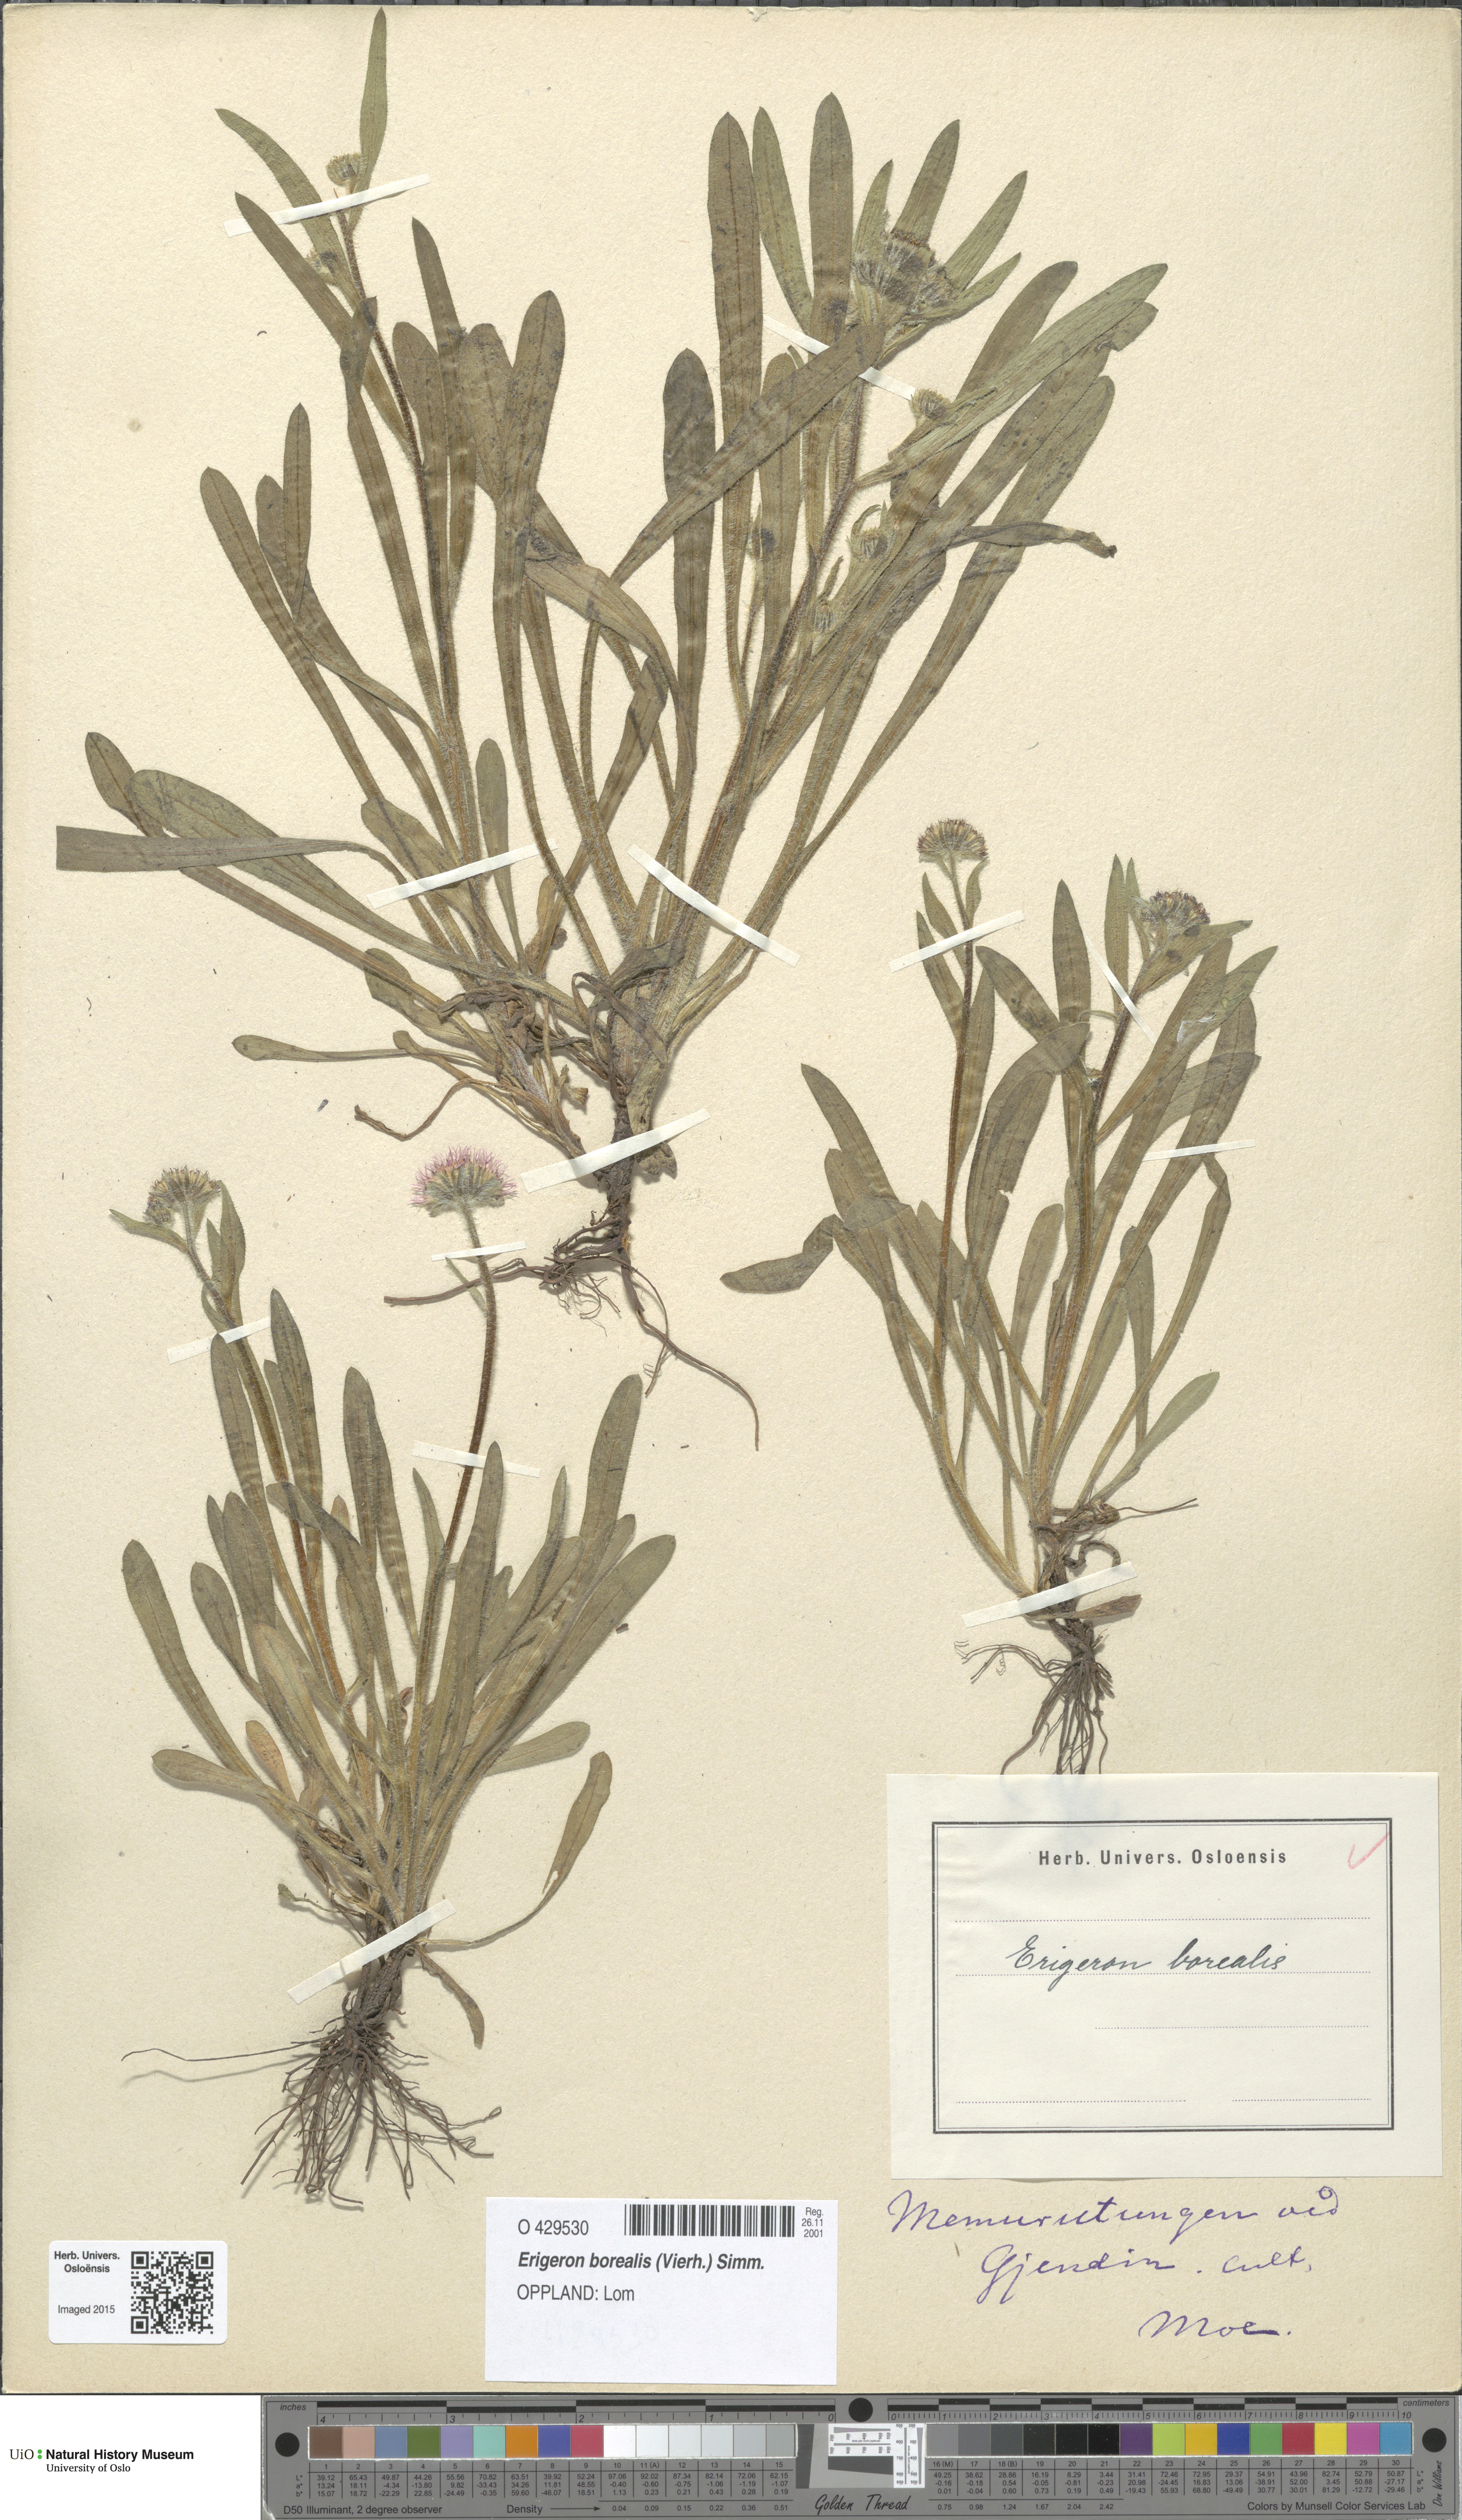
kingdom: Plantae
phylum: Tracheophyta
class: Magnoliopsida
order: Asterales
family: Asteraceae
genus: Erigeron
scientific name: Erigeron borealis
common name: Alpine fleabane
